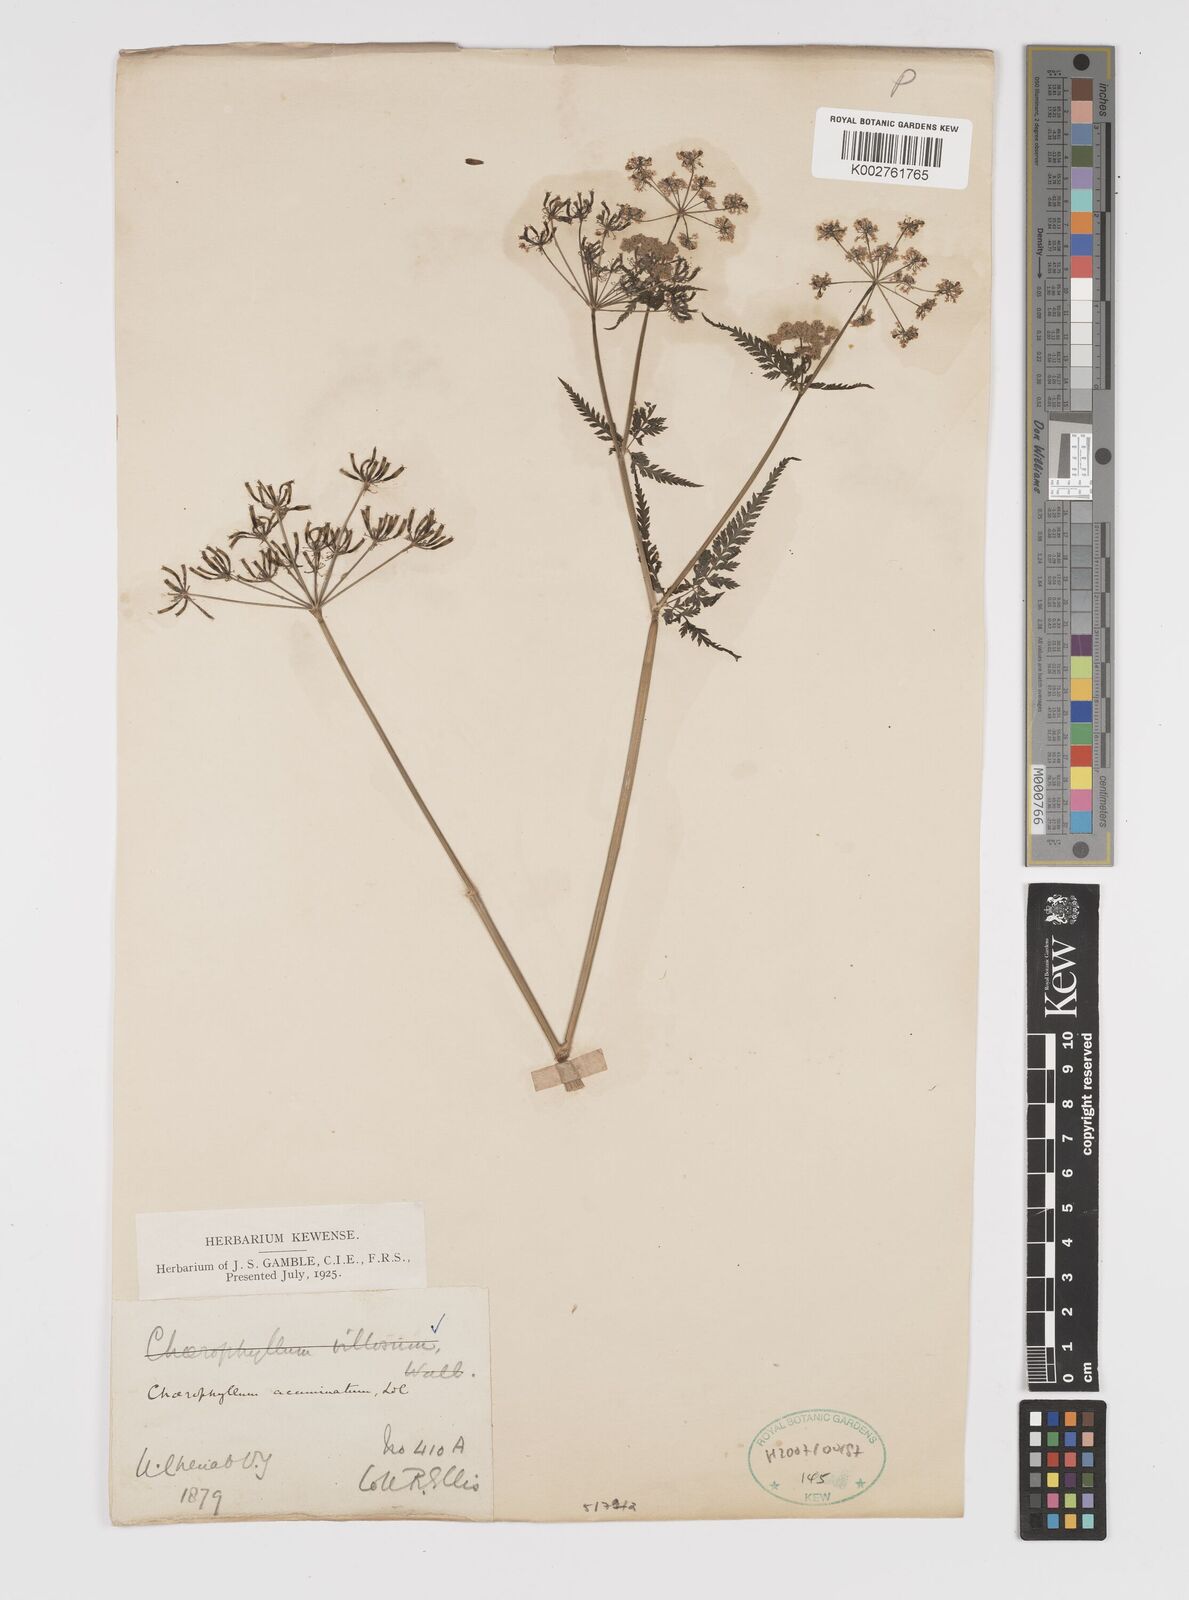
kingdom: Plantae
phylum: Tracheophyta
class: Magnoliopsida
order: Apiales
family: Apiaceae
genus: Chaerophyllum
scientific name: Chaerophyllum reflexum
